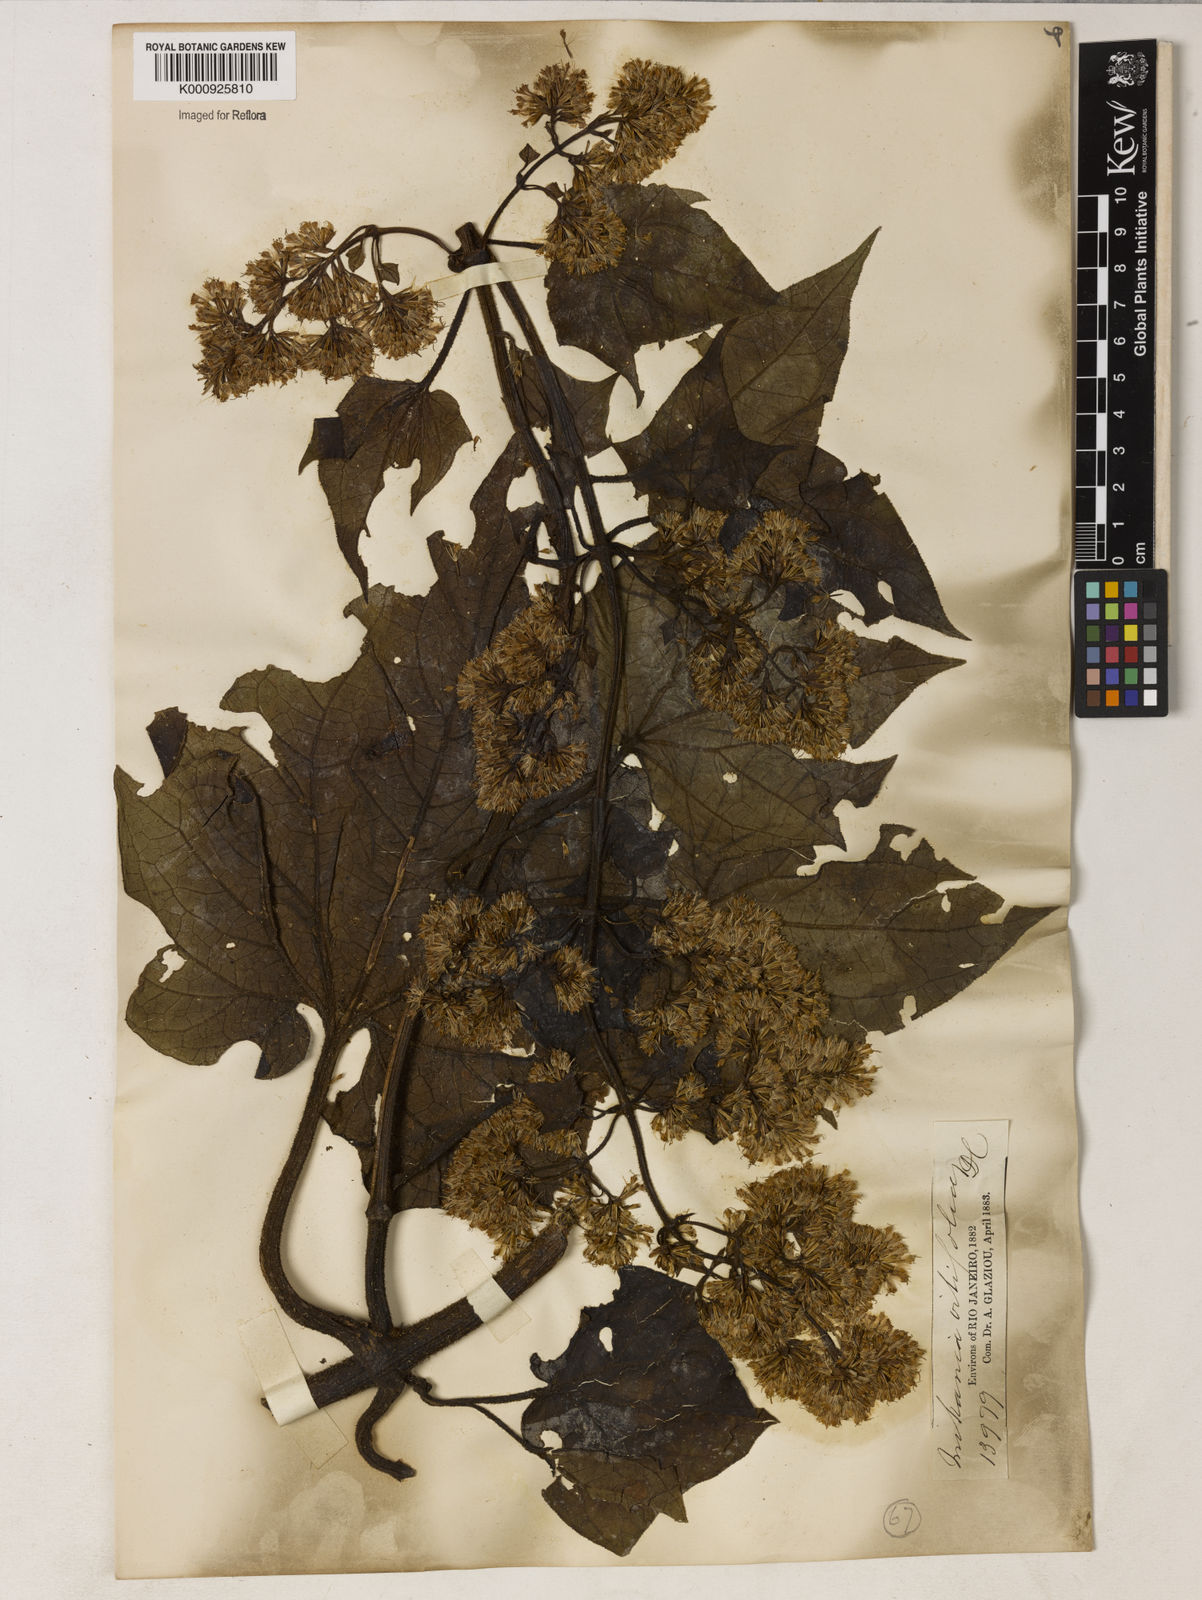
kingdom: Plantae
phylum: Tracheophyta
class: Magnoliopsida
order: Asterales
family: Asteraceae
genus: Mikania
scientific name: Mikania vitifolia
